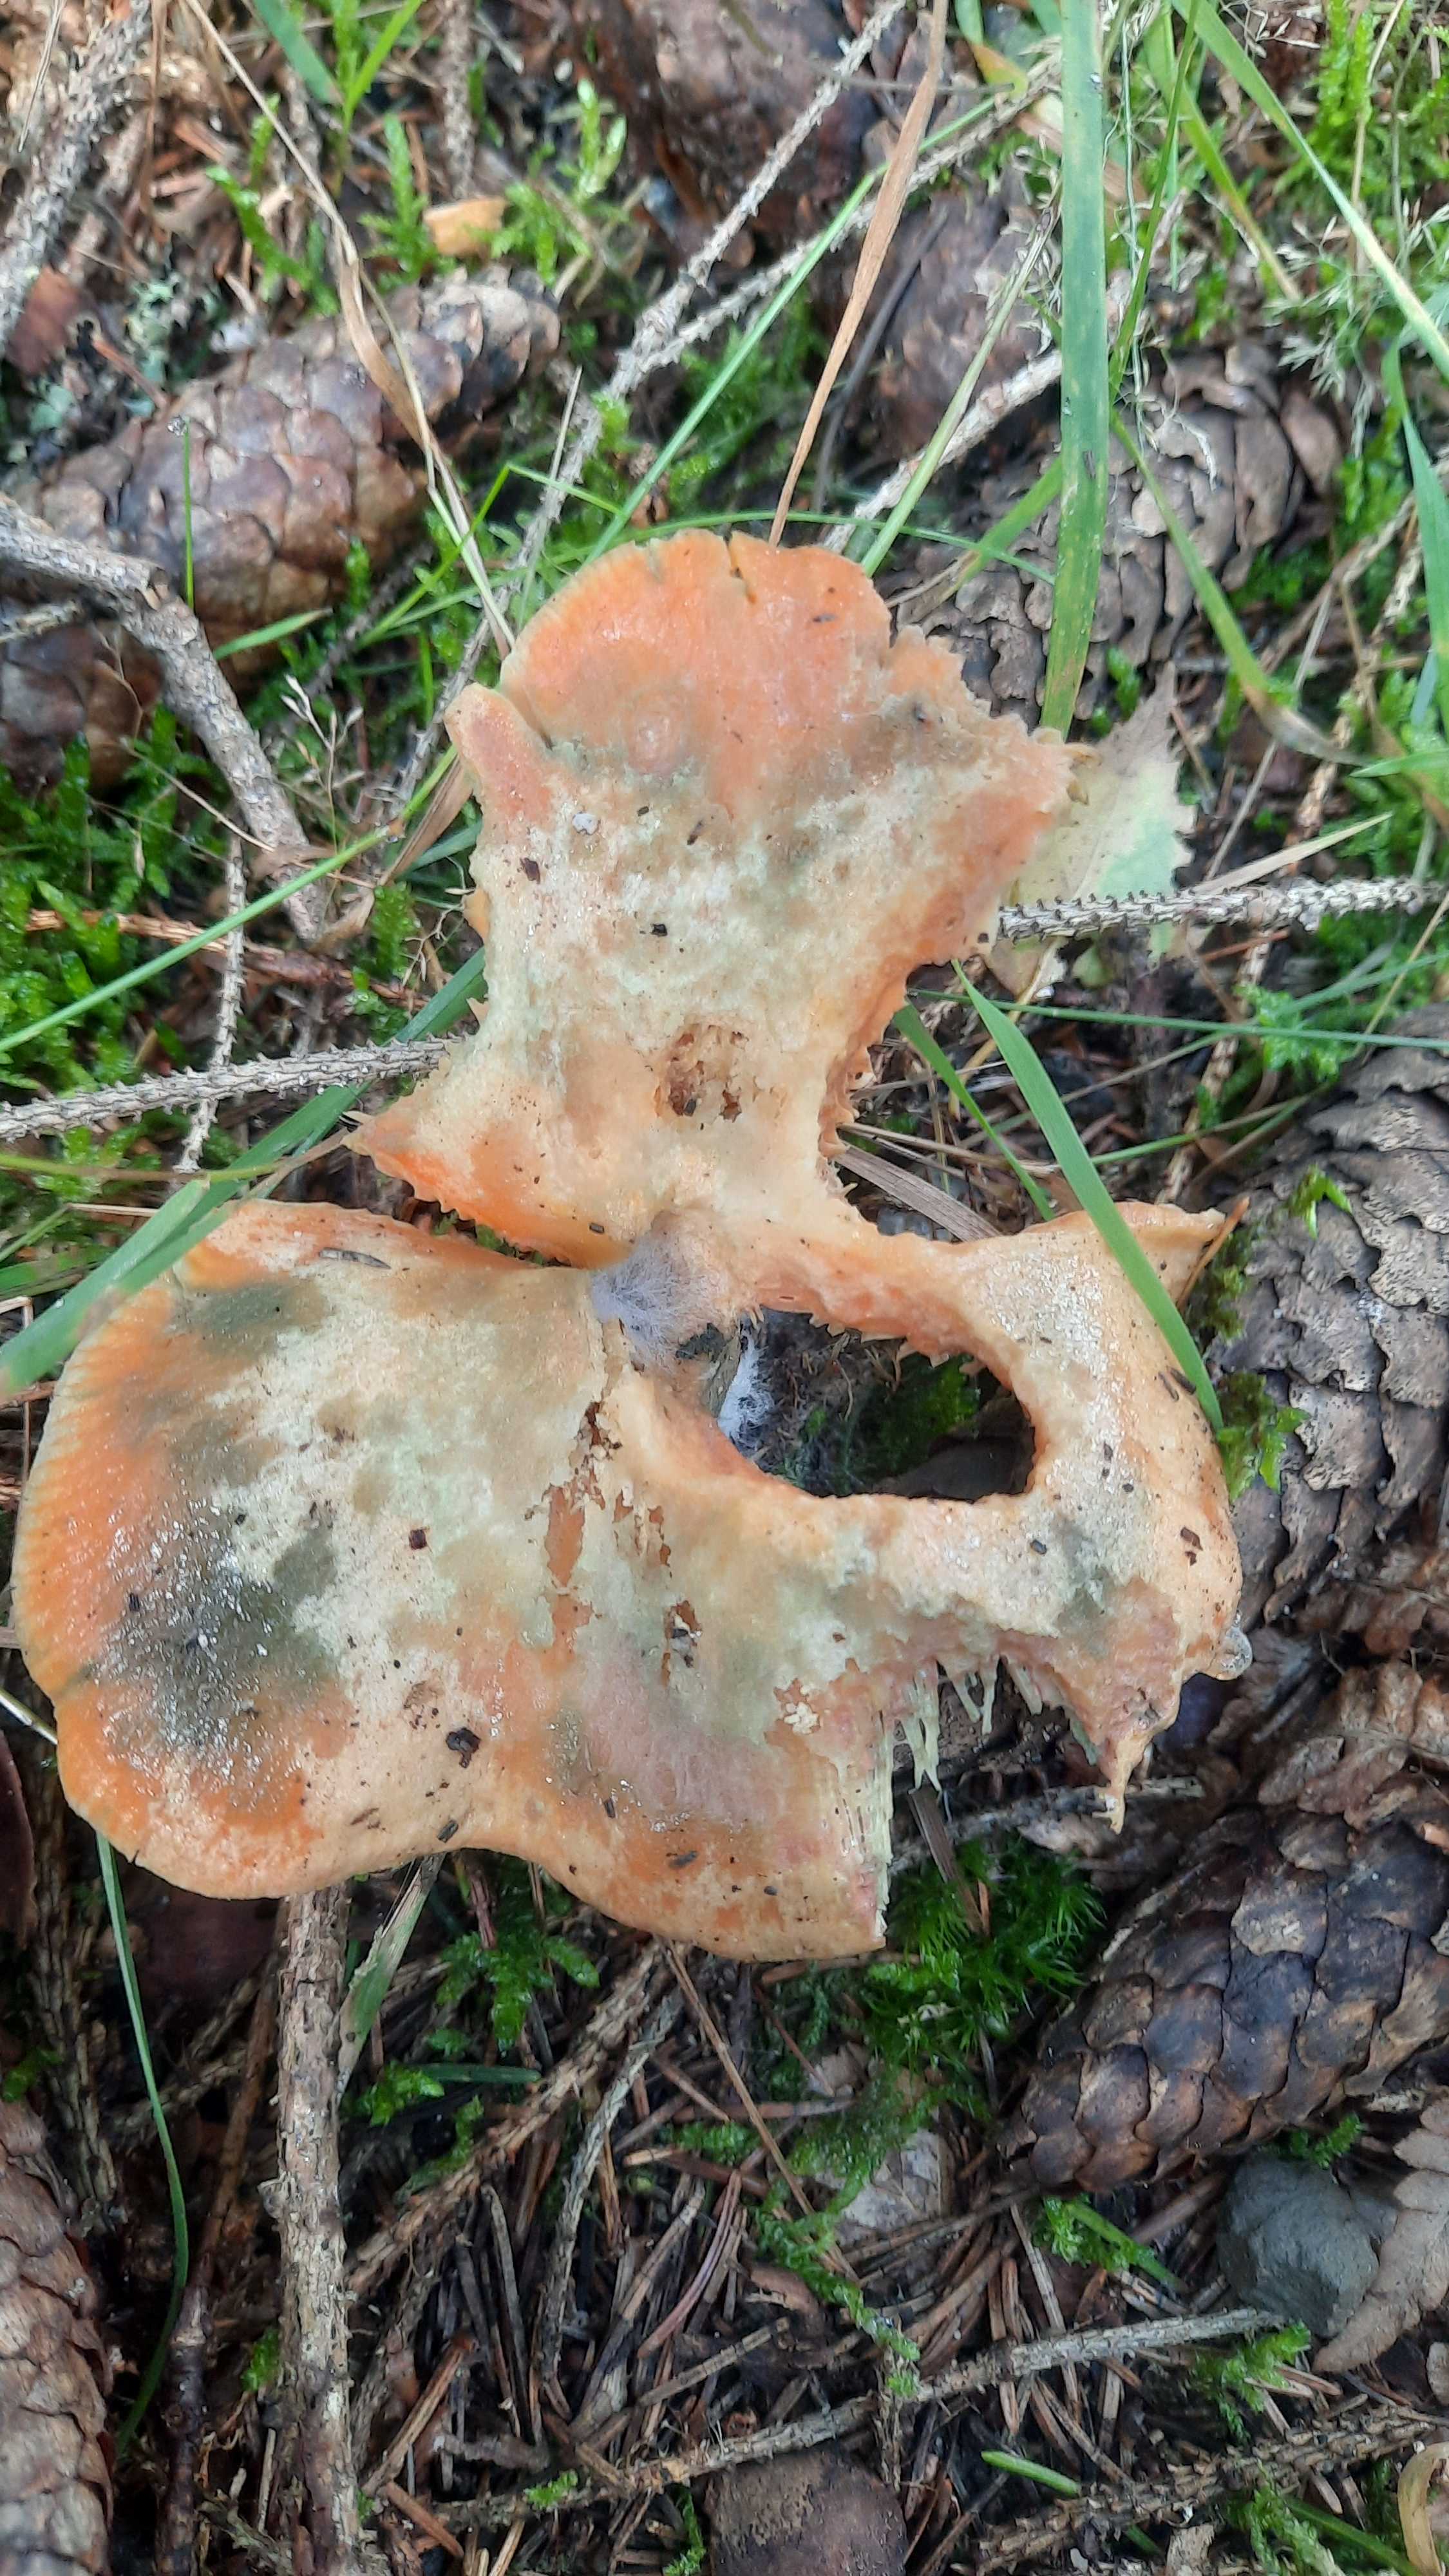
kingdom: Fungi
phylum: Basidiomycota
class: Agaricomycetes
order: Russulales
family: Russulaceae
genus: Lactarius
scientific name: Lactarius deterrimus
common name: gran-mælkehat
